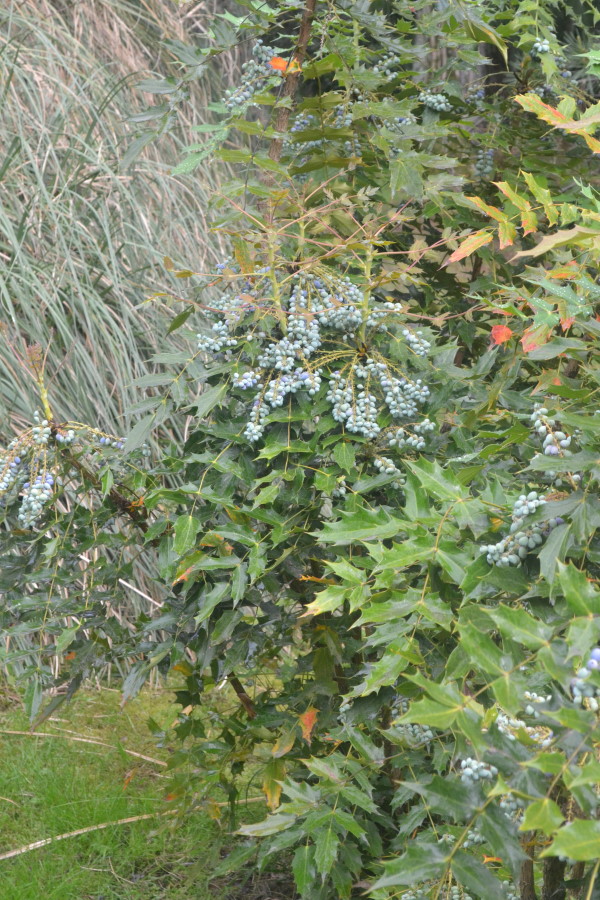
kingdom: Plantae
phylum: Tracheophyta
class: Magnoliopsida
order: Ranunculales
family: Berberidaceae
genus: Mahonia
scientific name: Mahonia aquifolium
